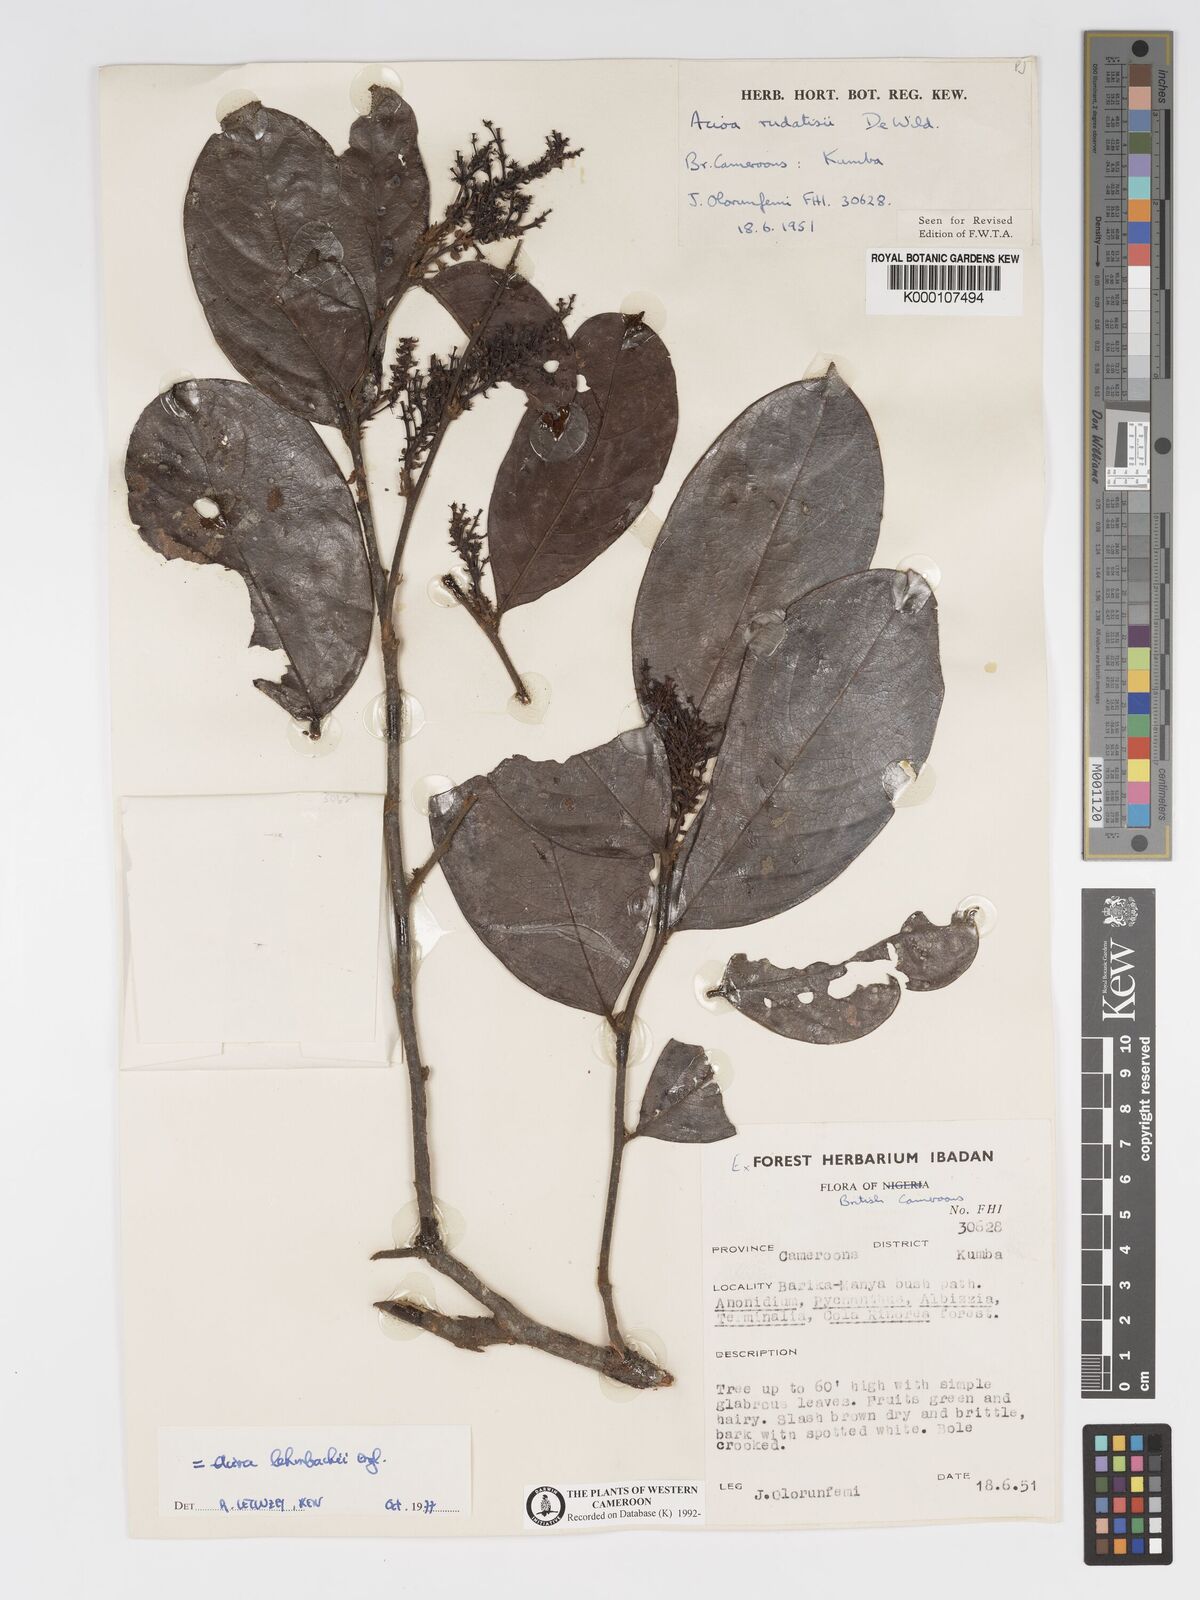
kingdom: Plantae
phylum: Tracheophyta
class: Magnoliopsida
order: Malpighiales
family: Chrysobalanaceae
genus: Dactyladenia
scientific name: Dactyladenia lehmbachii
